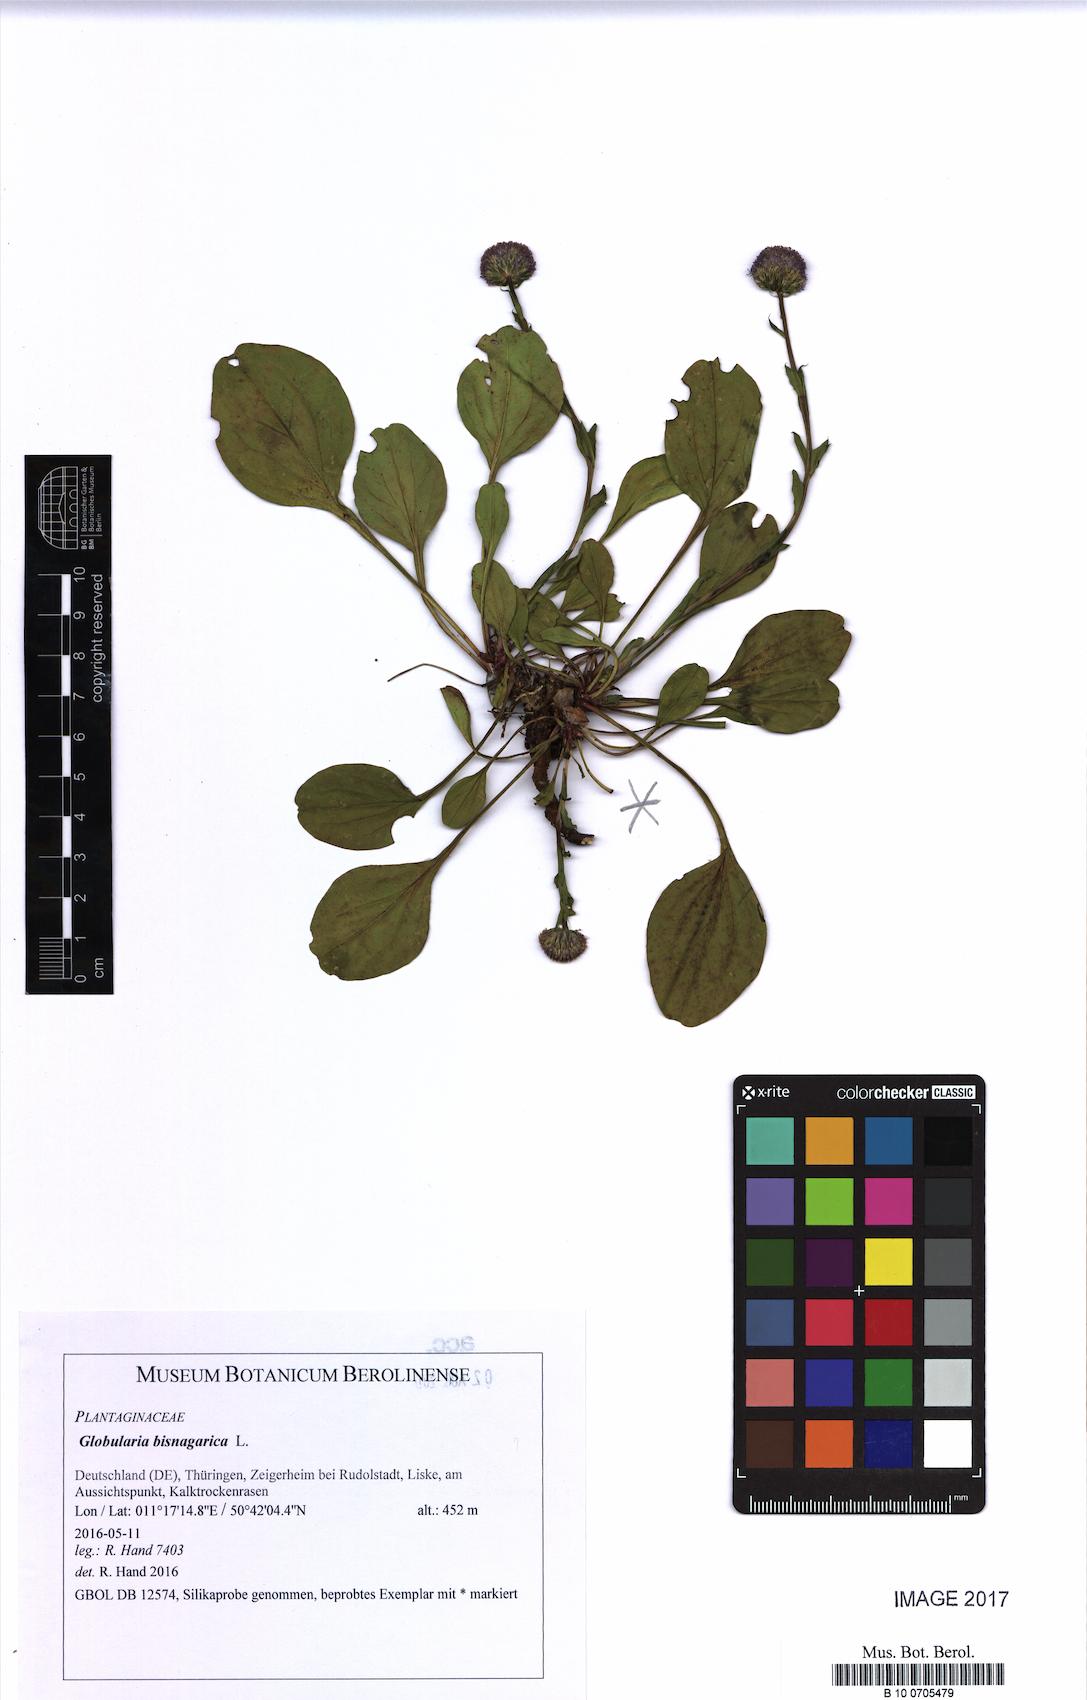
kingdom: Plantae
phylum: Tracheophyta
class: Magnoliopsida
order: Lamiales
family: Plantaginaceae
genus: Globularia
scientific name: Globularia bisnagarica
